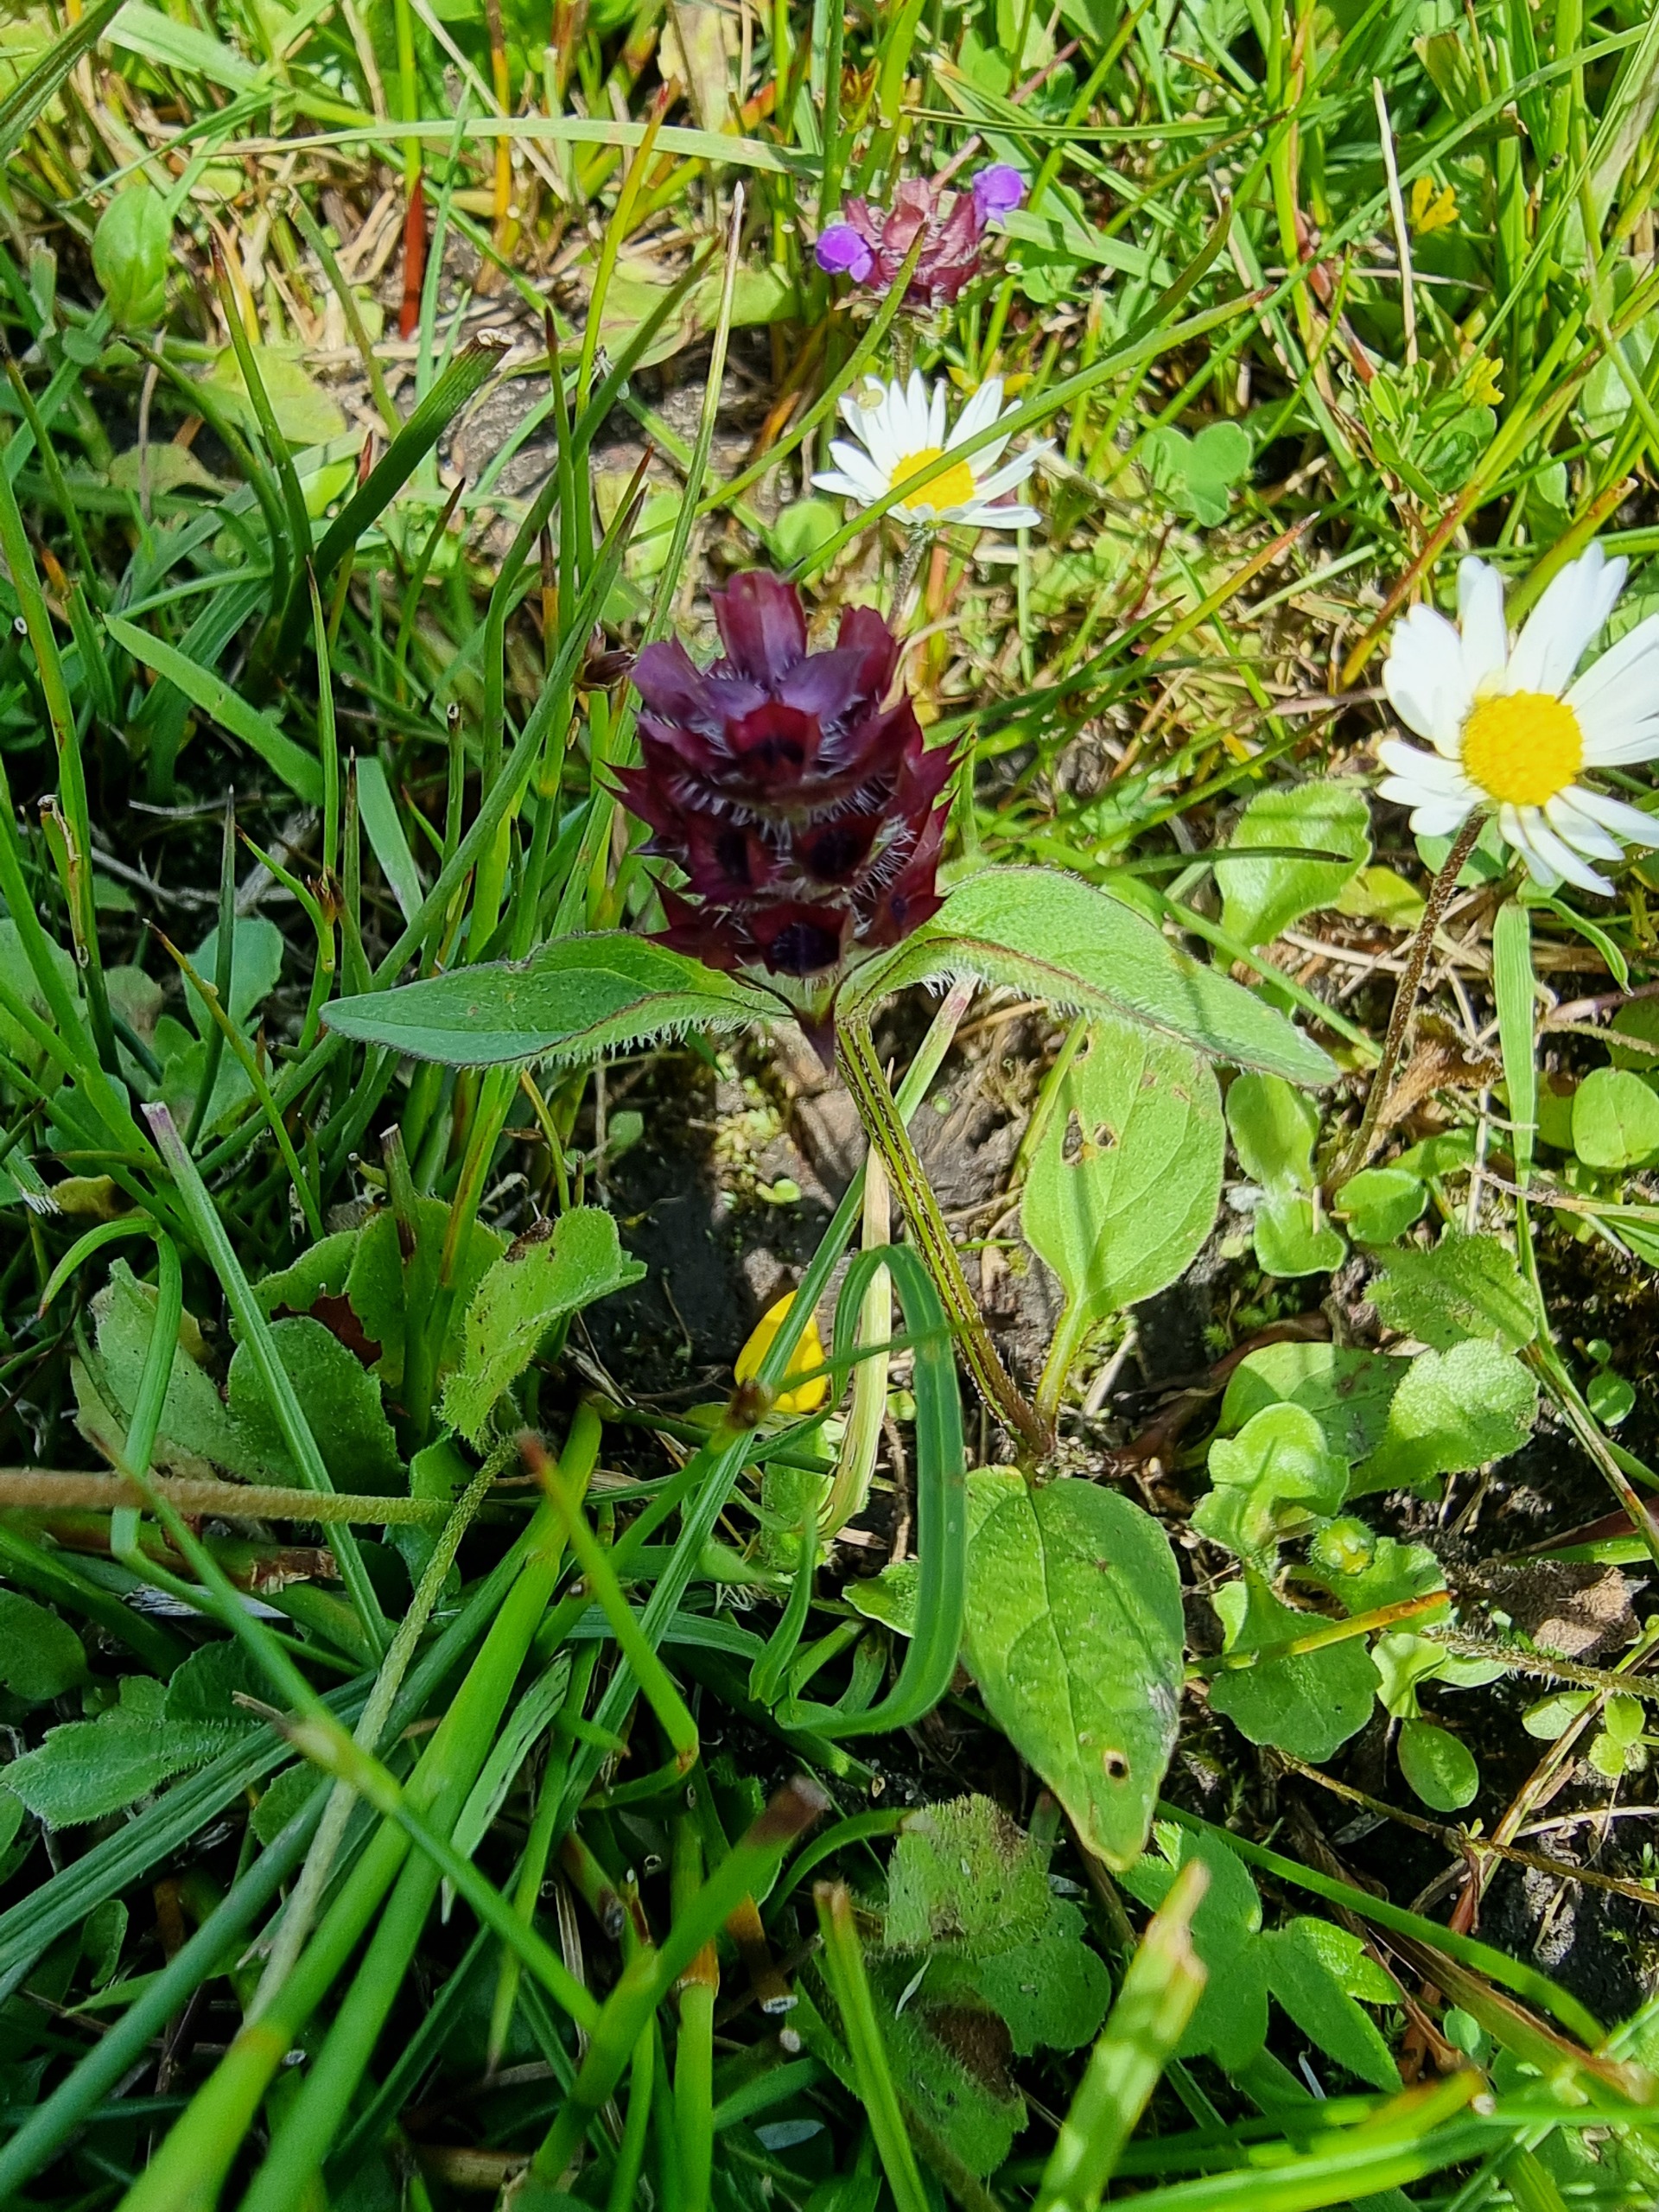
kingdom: Plantae
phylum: Tracheophyta
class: Magnoliopsida
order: Lamiales
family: Lamiaceae
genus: Prunella
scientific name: Prunella vulgaris
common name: Almindelig brunelle
